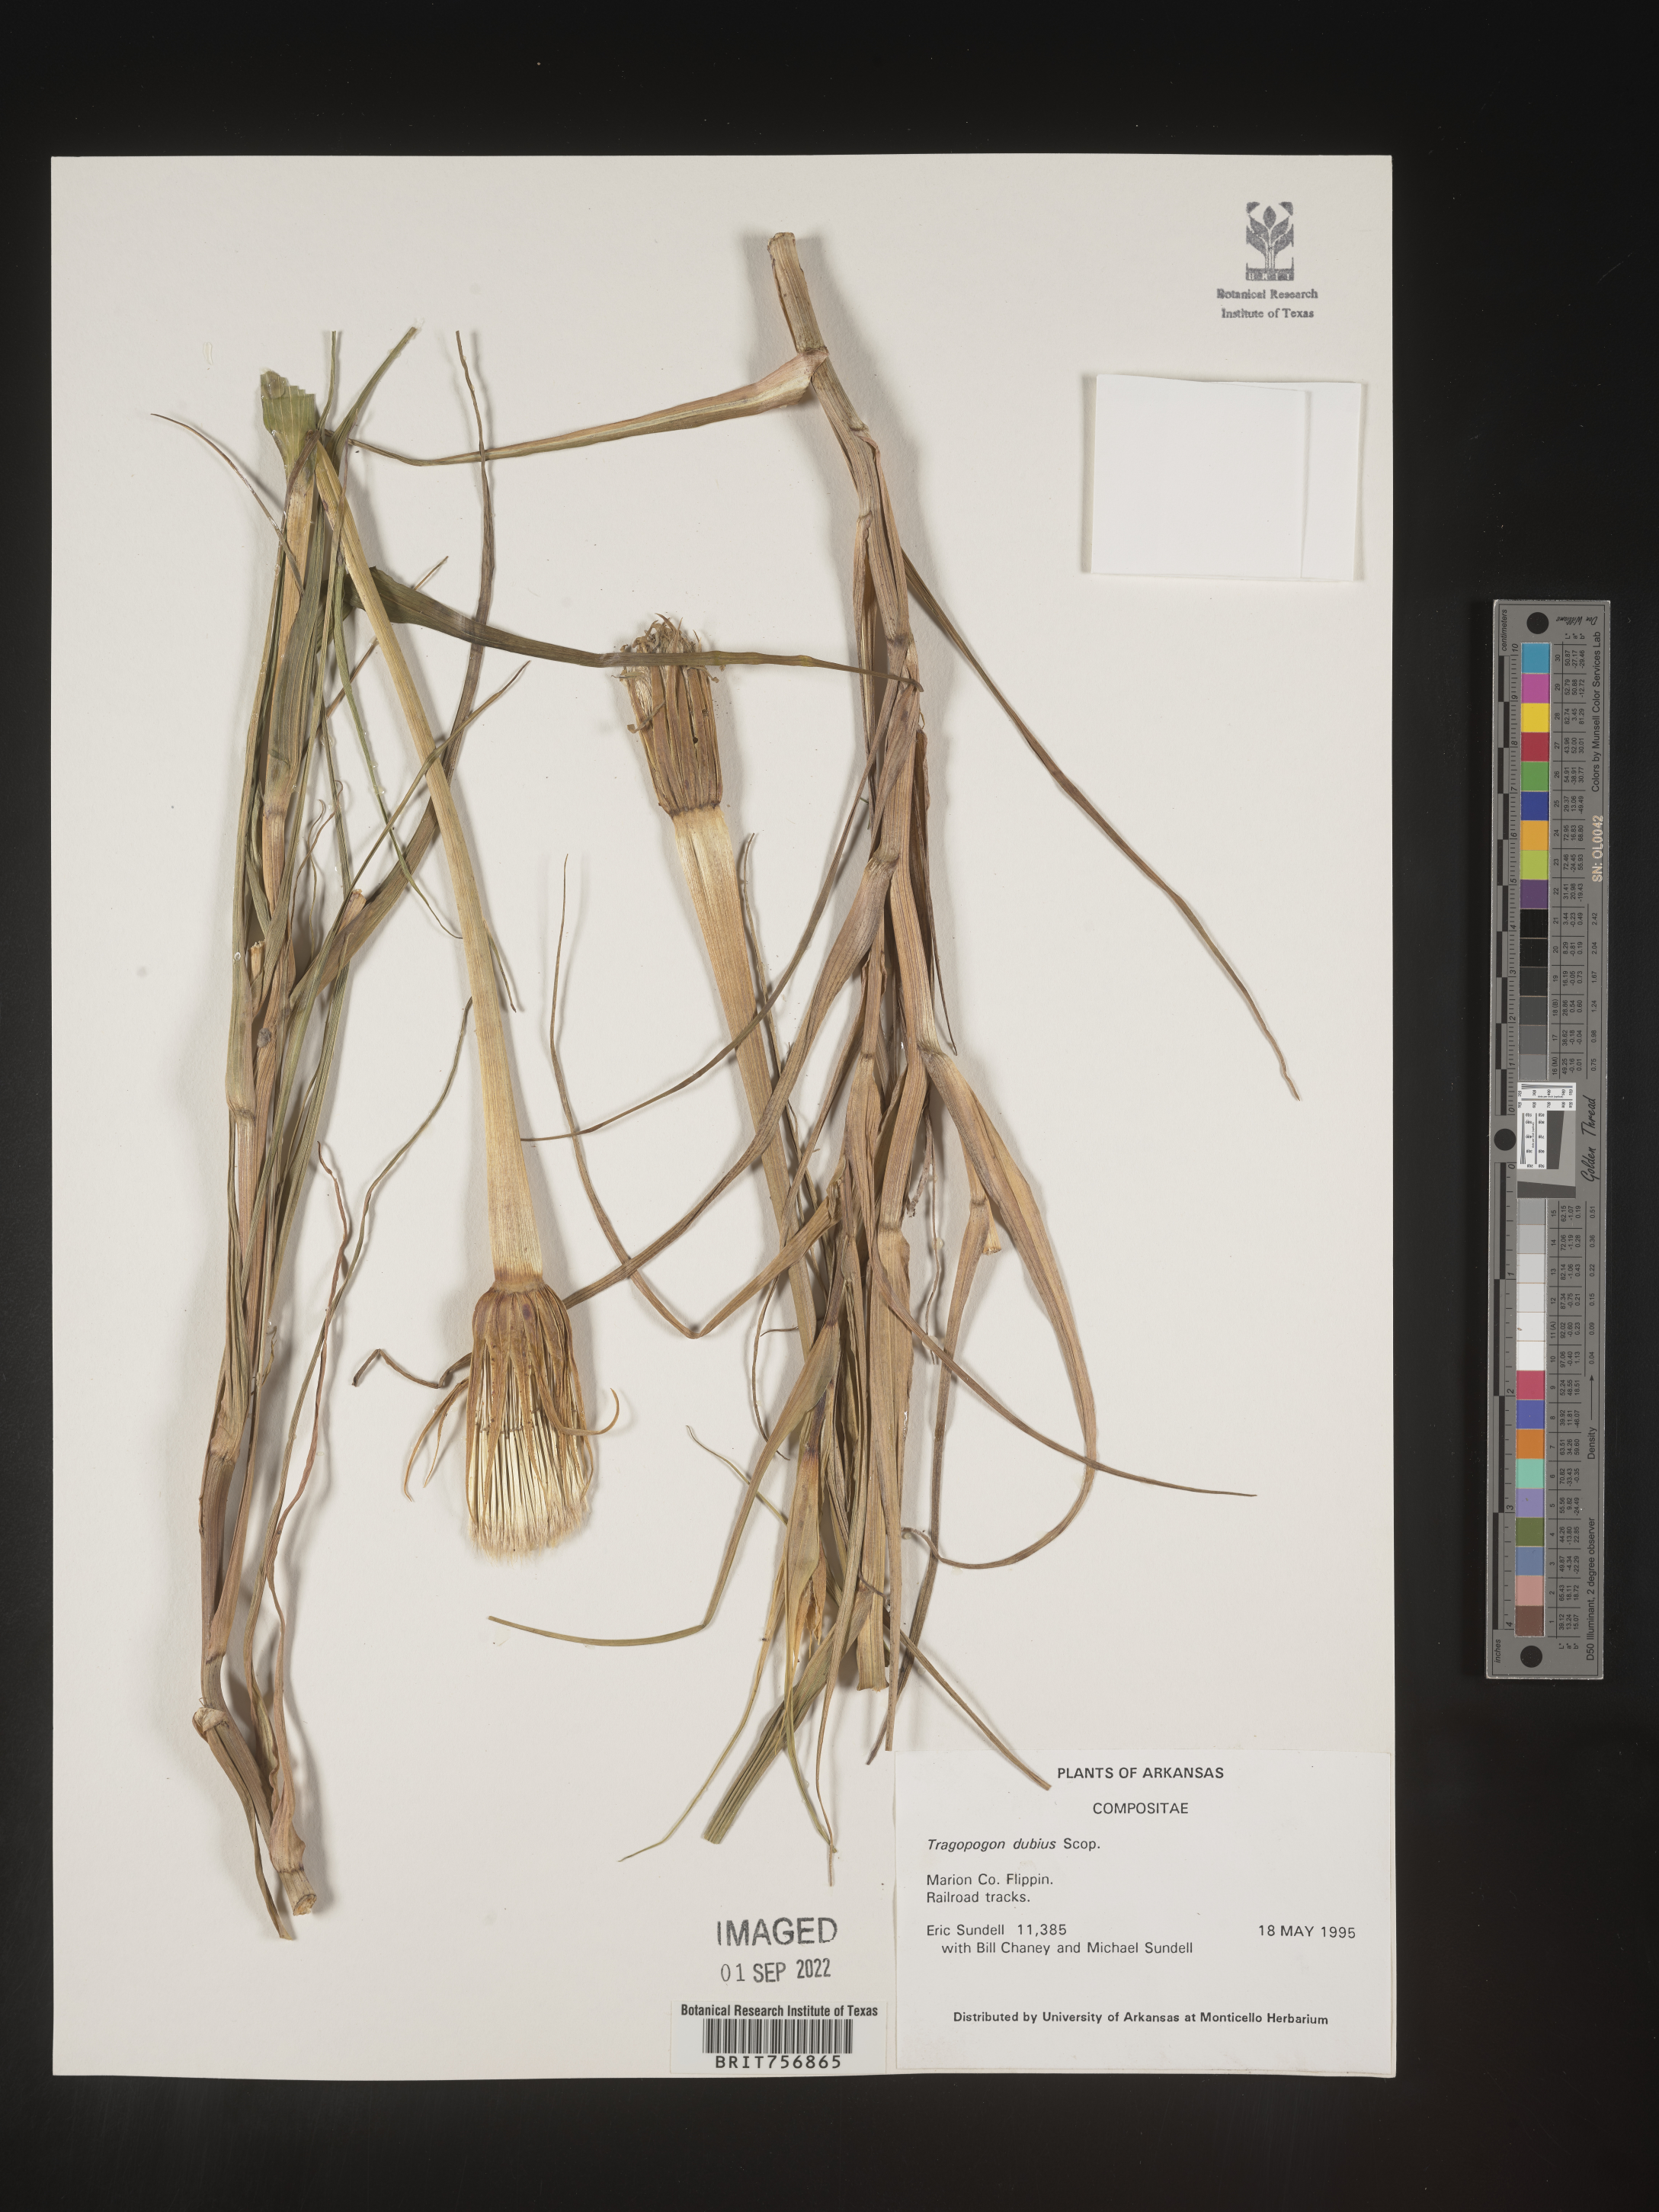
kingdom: Plantae
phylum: Tracheophyta
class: Magnoliopsida
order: Asterales
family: Asteraceae
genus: Tragopogon
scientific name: Tragopogon dubius
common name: Yellow salsify
